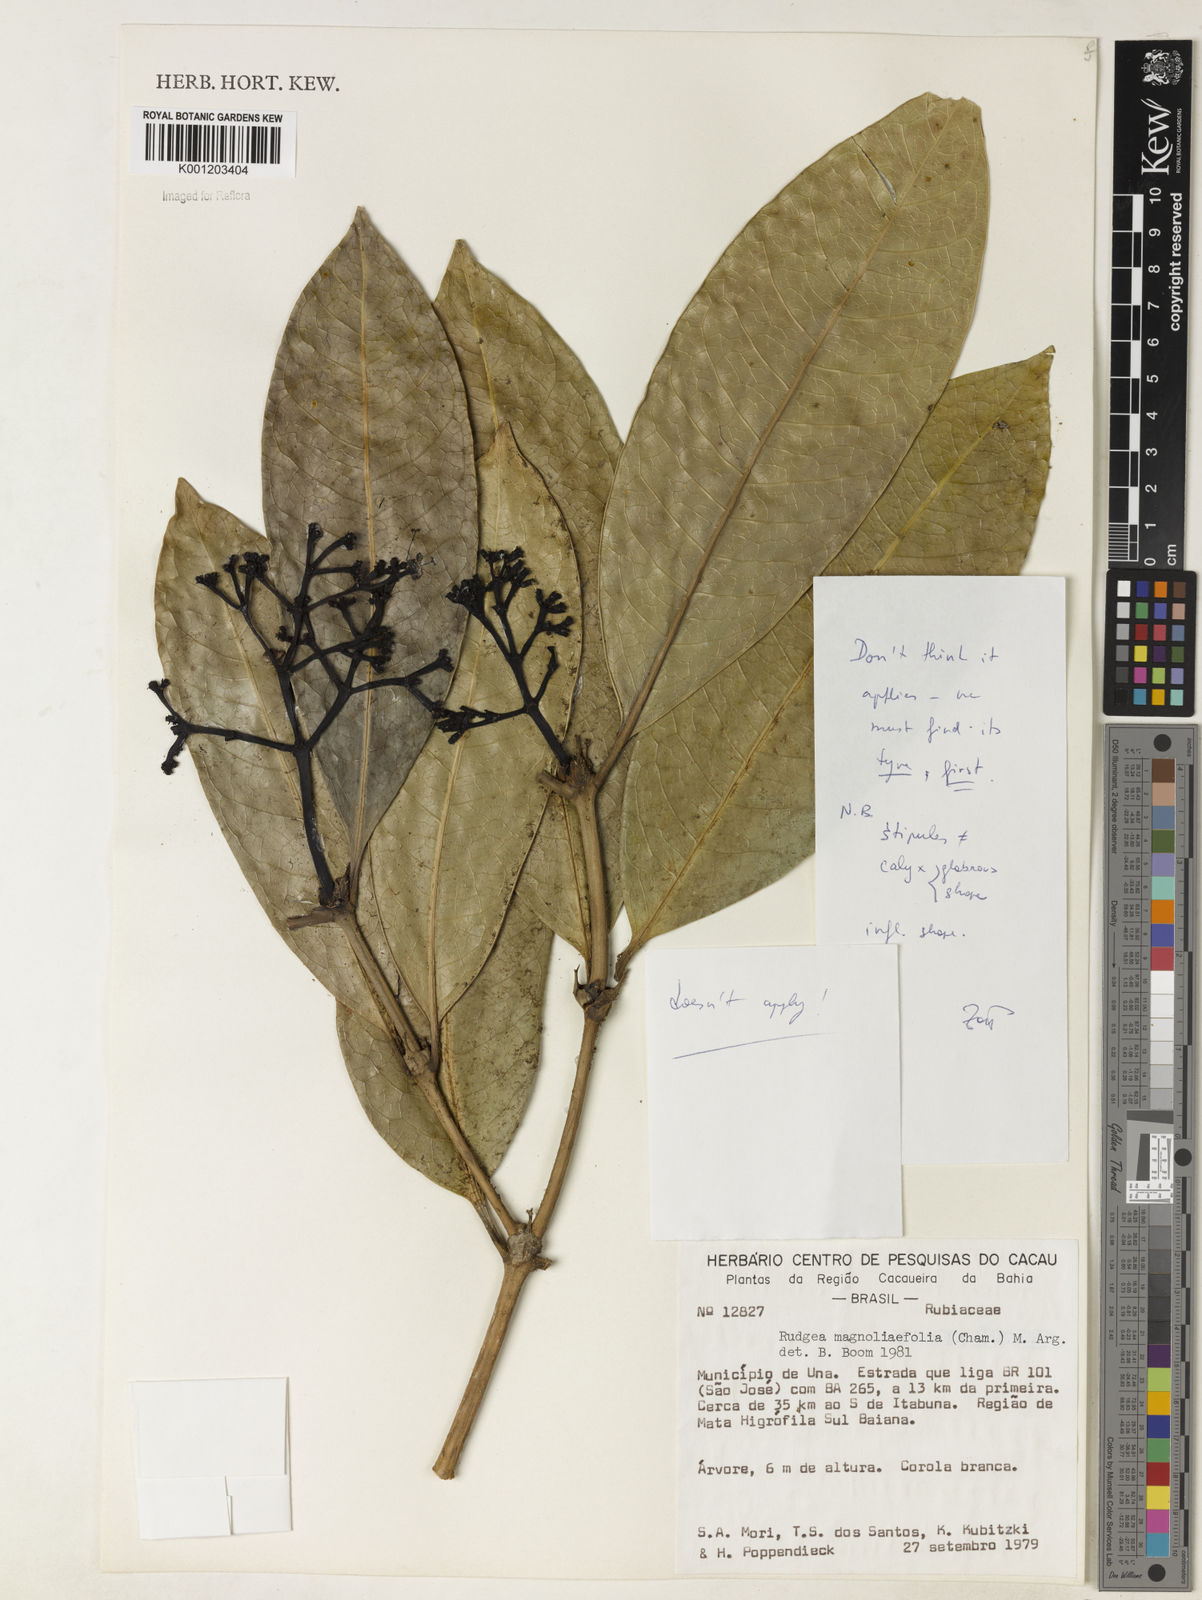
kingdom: Plantae
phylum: Tracheophyta
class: Magnoliopsida
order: Gentianales
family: Rubiaceae
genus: Rudgea
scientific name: Rudgea coriacea
